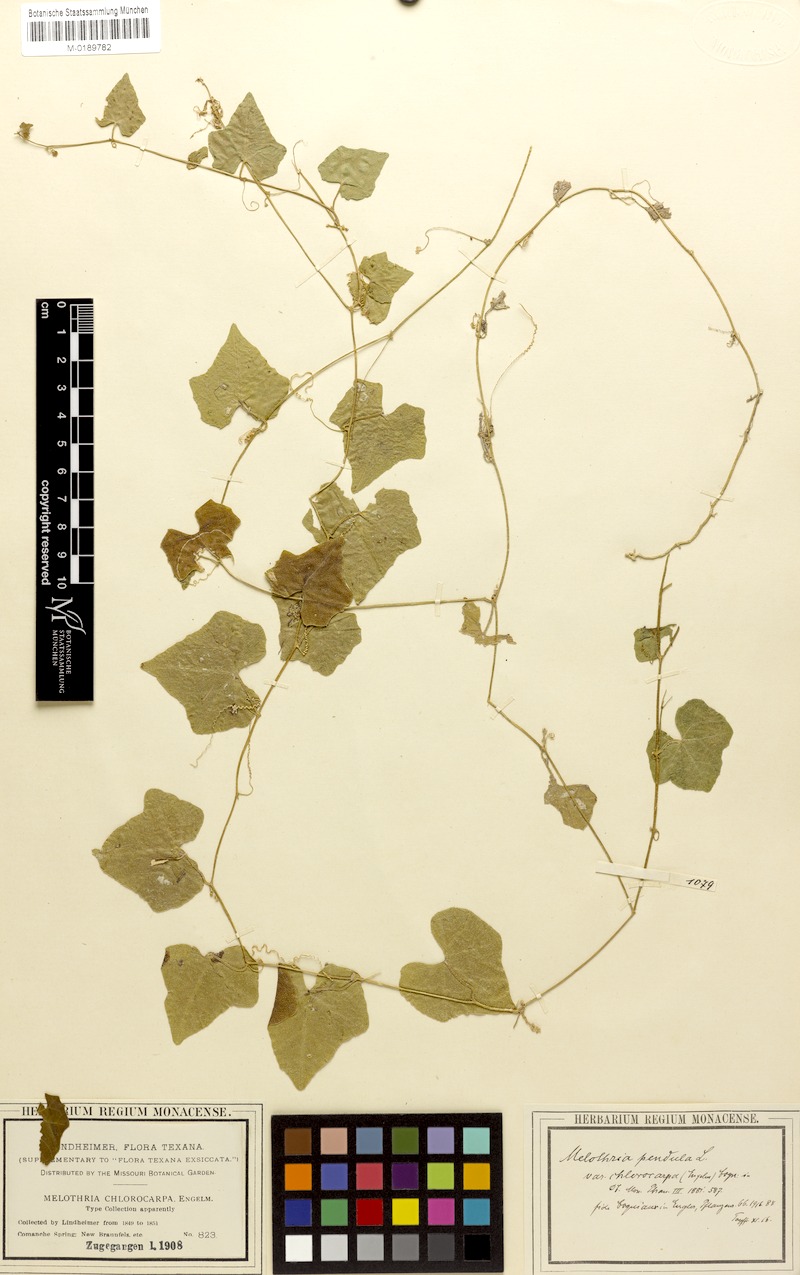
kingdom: Plantae
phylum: Tracheophyta
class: Magnoliopsida
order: Cucurbitales
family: Cucurbitaceae
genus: Melothria
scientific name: Melothria pendula
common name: Creeping-cucumber
